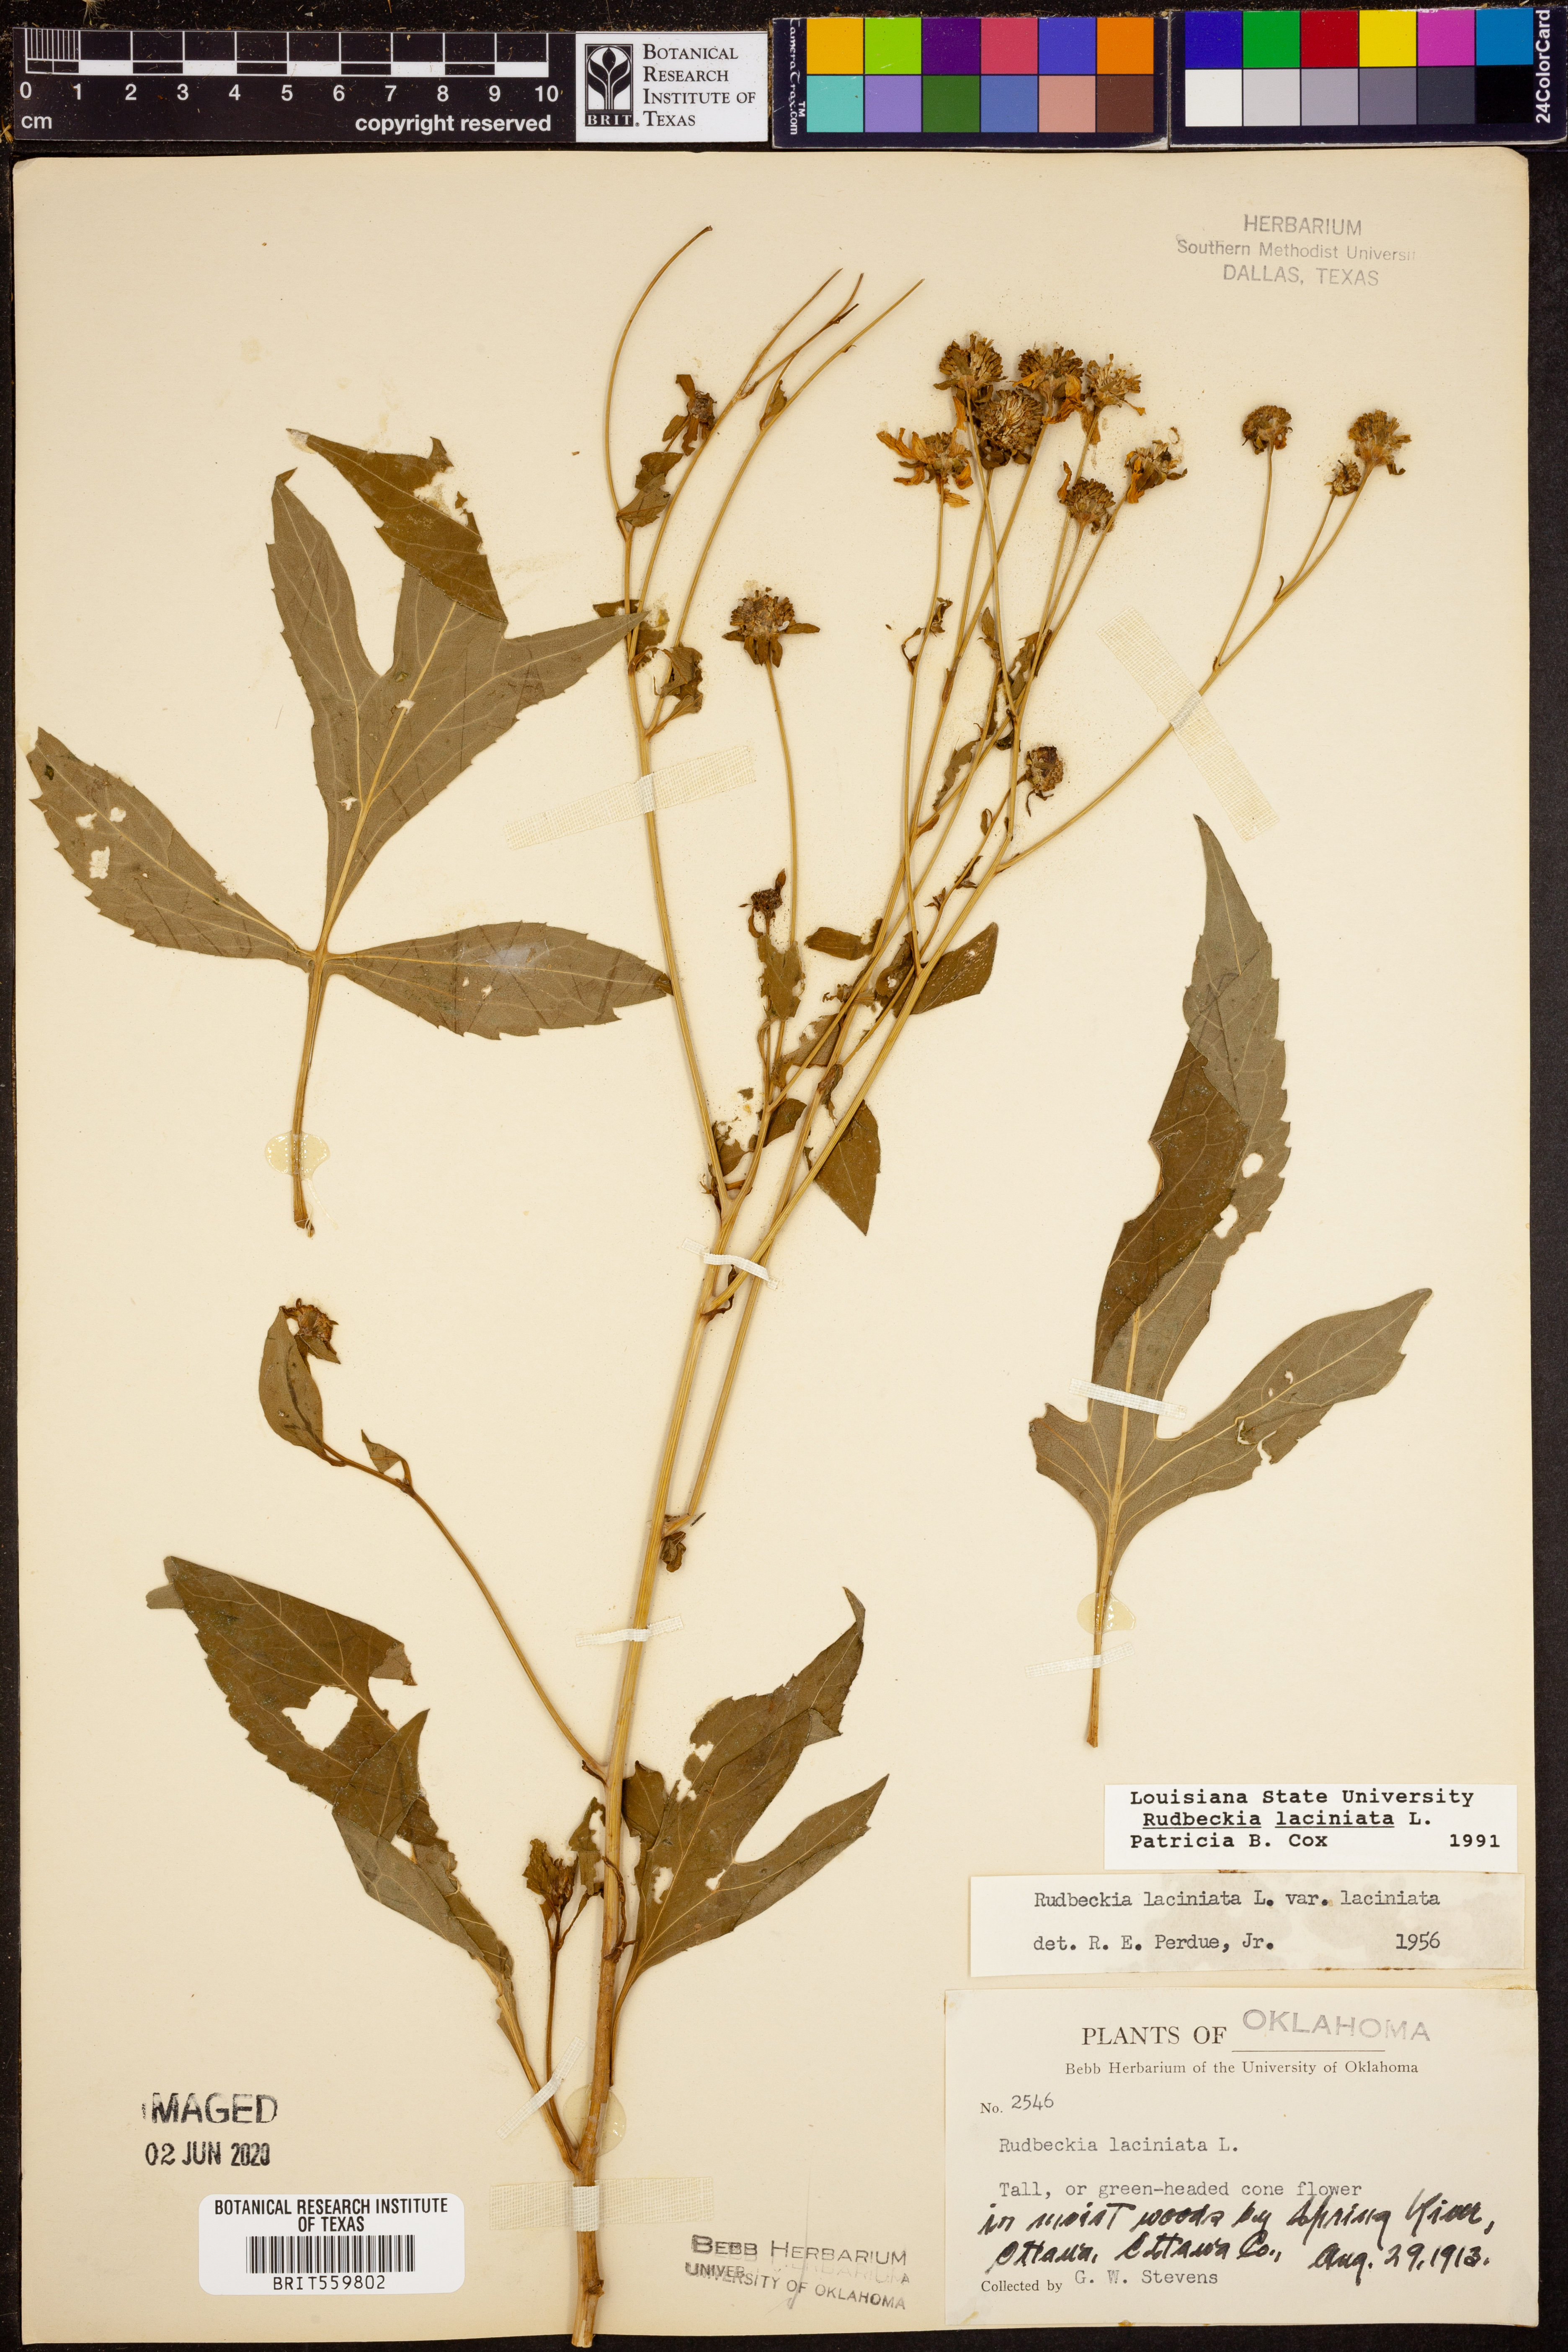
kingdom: Plantae
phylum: Tracheophyta
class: Magnoliopsida
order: Asterales
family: Asteraceae
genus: Rudbeckia
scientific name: Rudbeckia laciniata
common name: Coneflower
